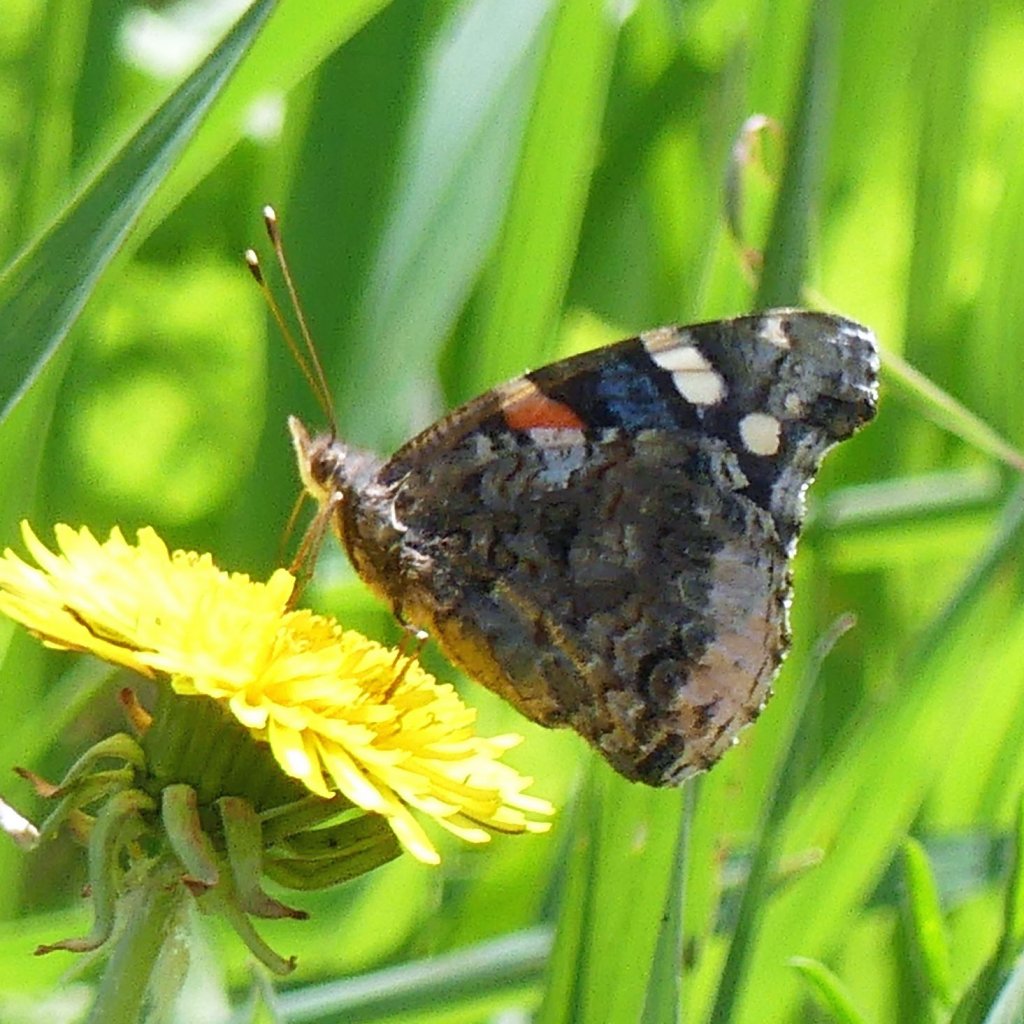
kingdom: Animalia
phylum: Arthropoda
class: Insecta
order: Lepidoptera
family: Nymphalidae
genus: Vanessa
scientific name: Vanessa atalanta
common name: Red Admiral
